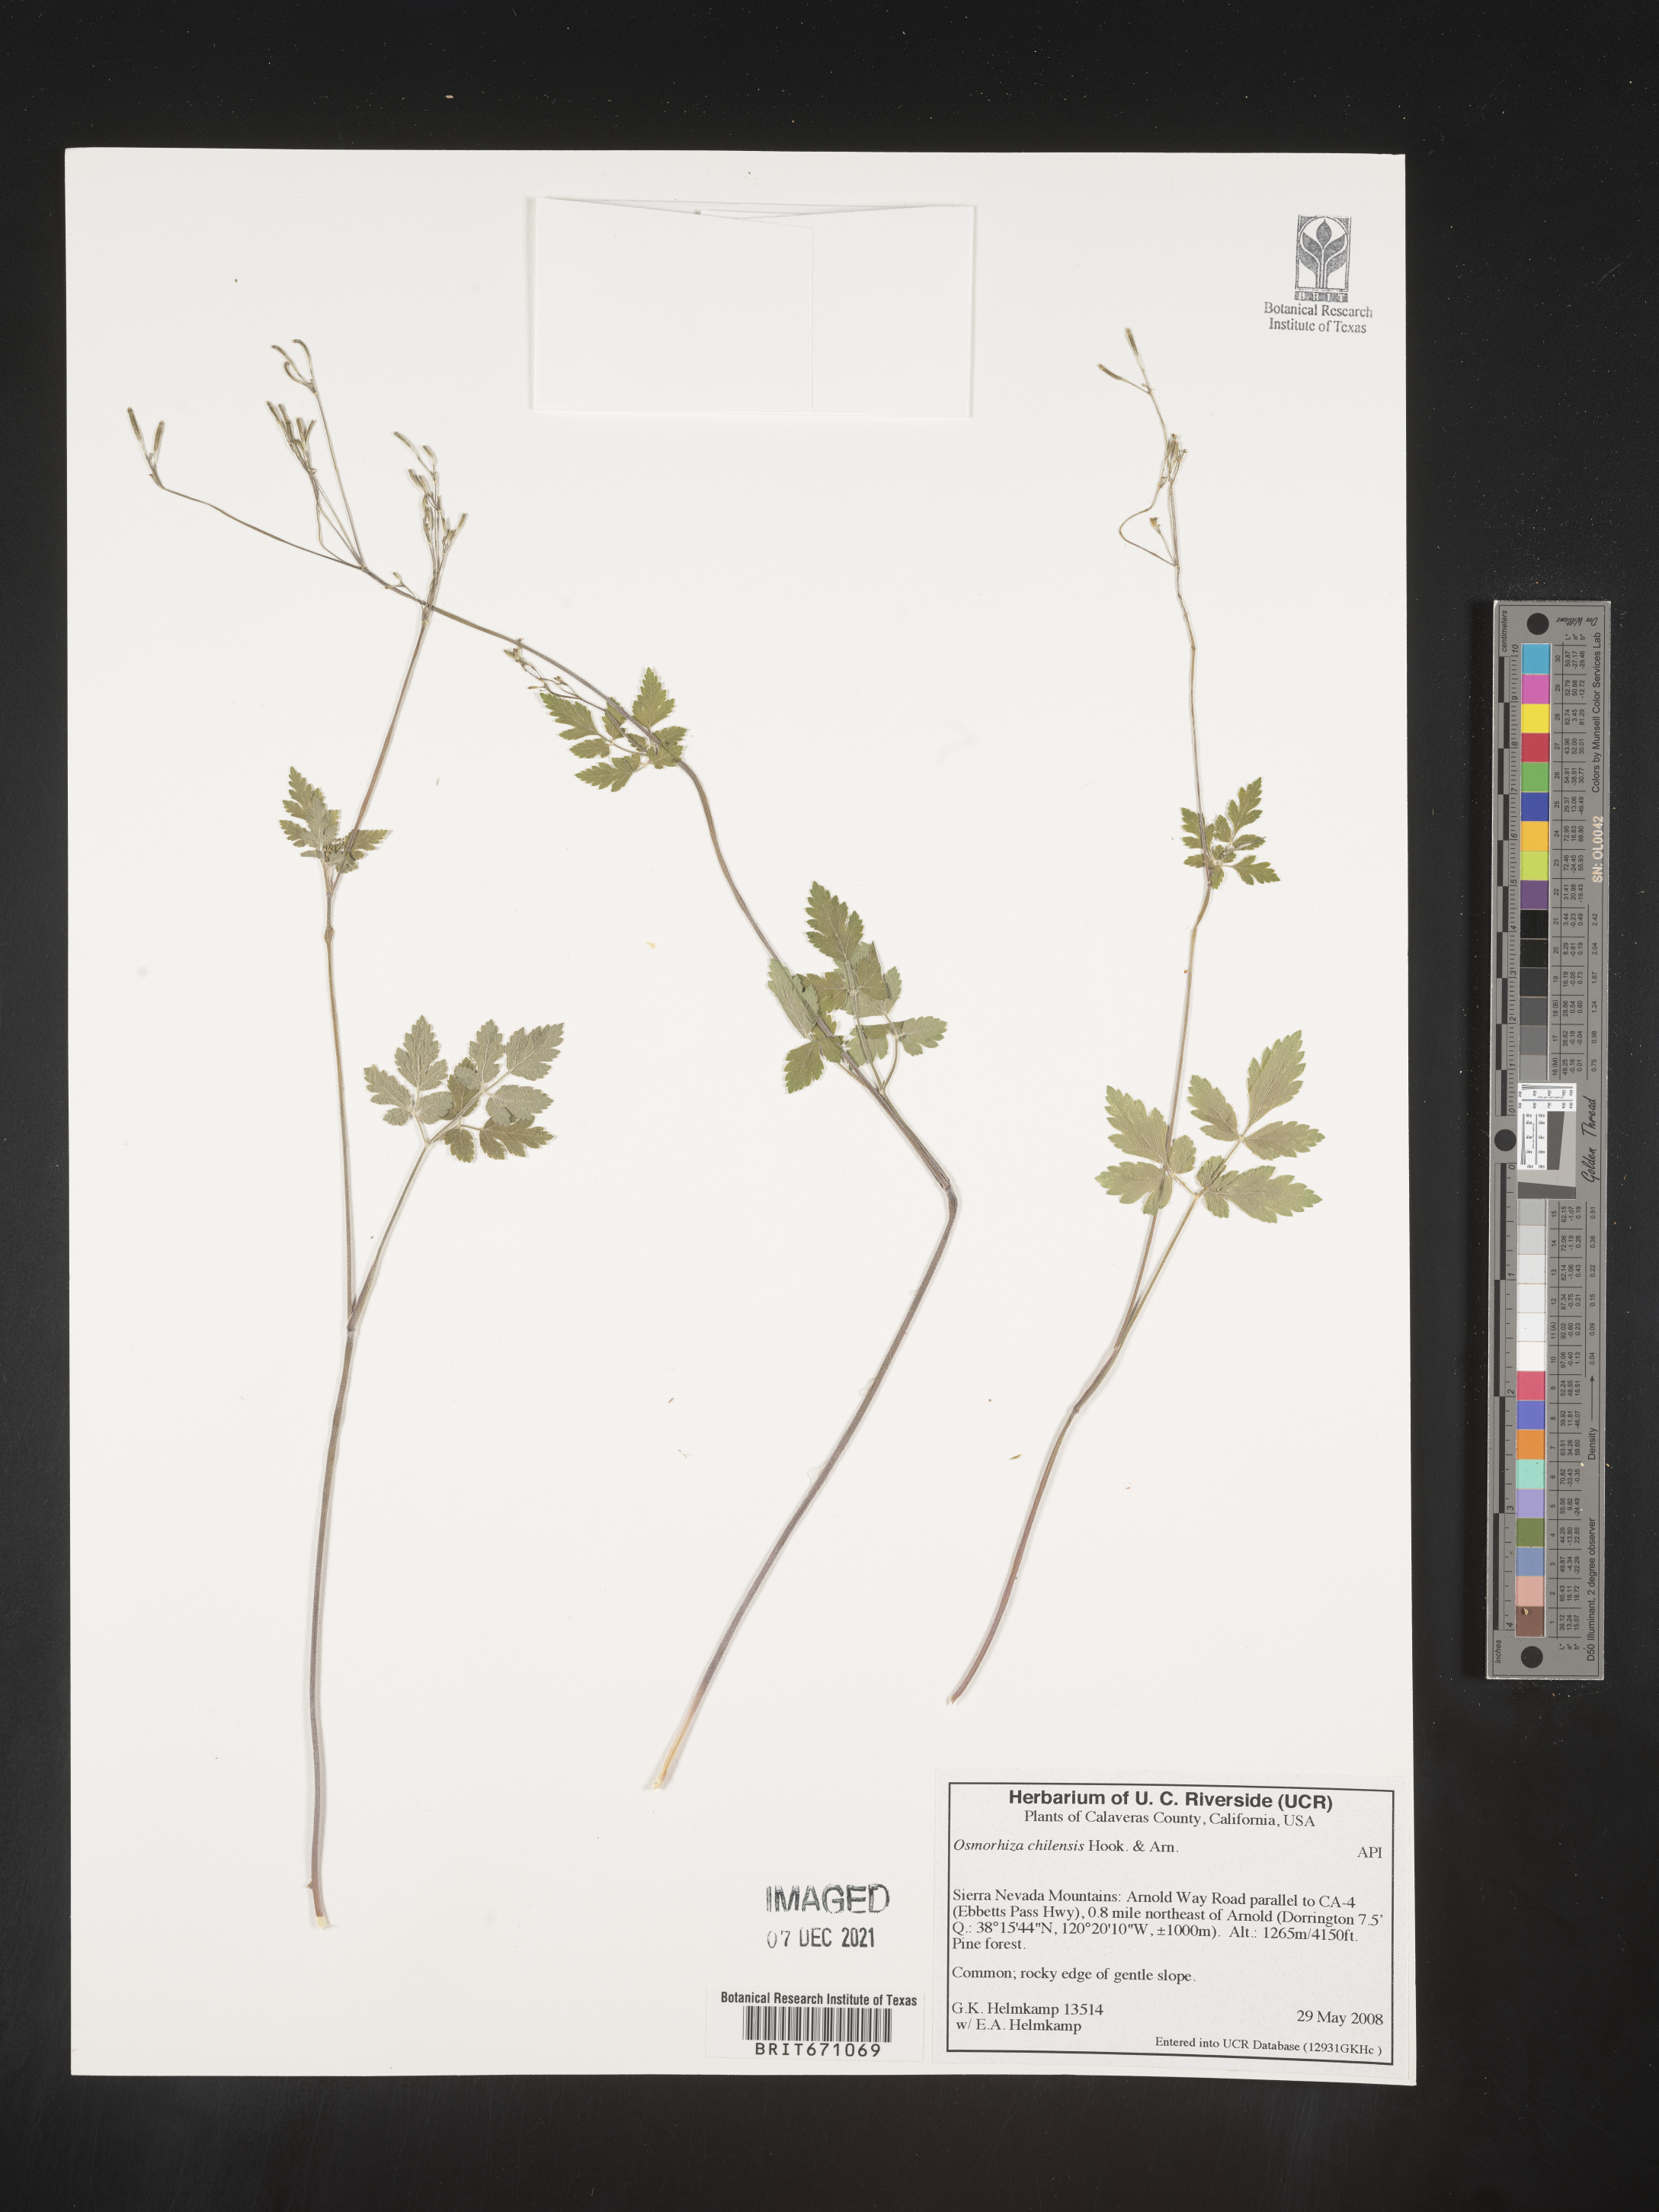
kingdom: Plantae
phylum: Tracheophyta
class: Magnoliopsida
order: Apiales
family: Apiaceae
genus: Osmorhiza
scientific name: Osmorhiza berteroi
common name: Mountain sweet cicely
